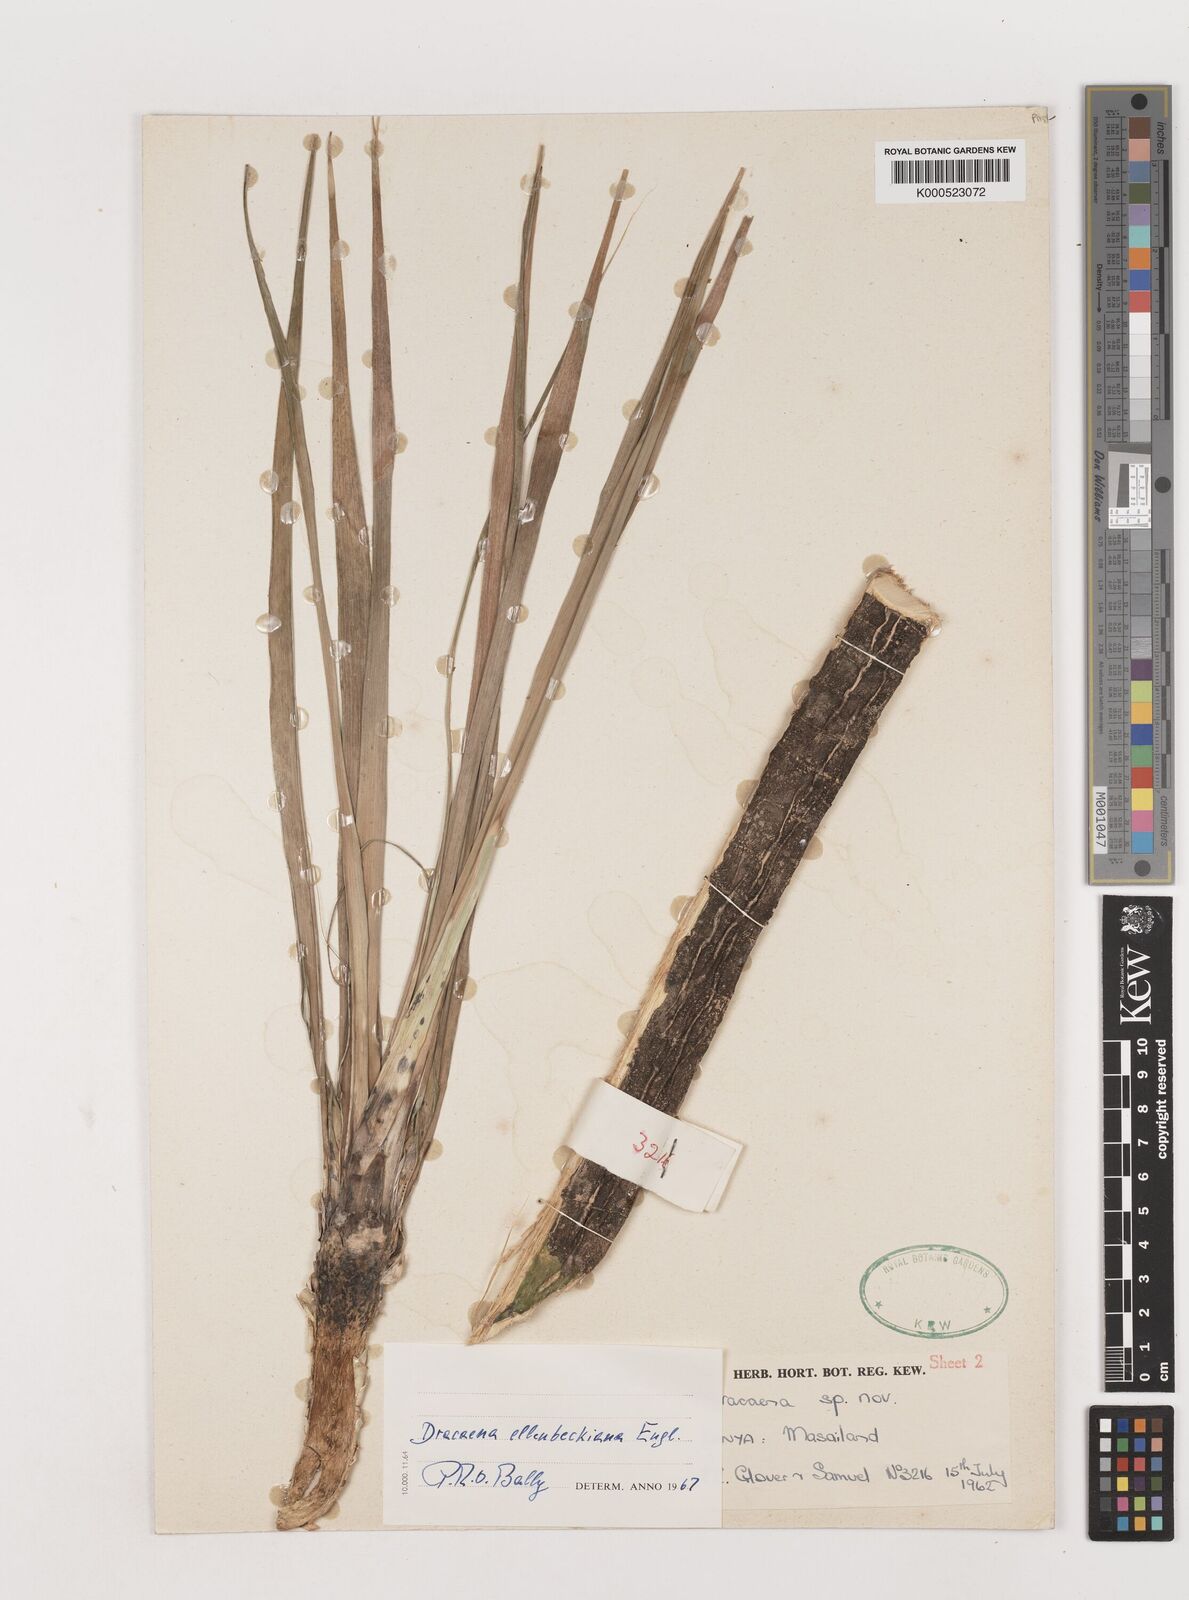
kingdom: Plantae
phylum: Tracheophyta
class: Liliopsida
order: Asparagales
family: Asparagaceae
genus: Dracaena
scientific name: Dracaena ellenbeckiana
